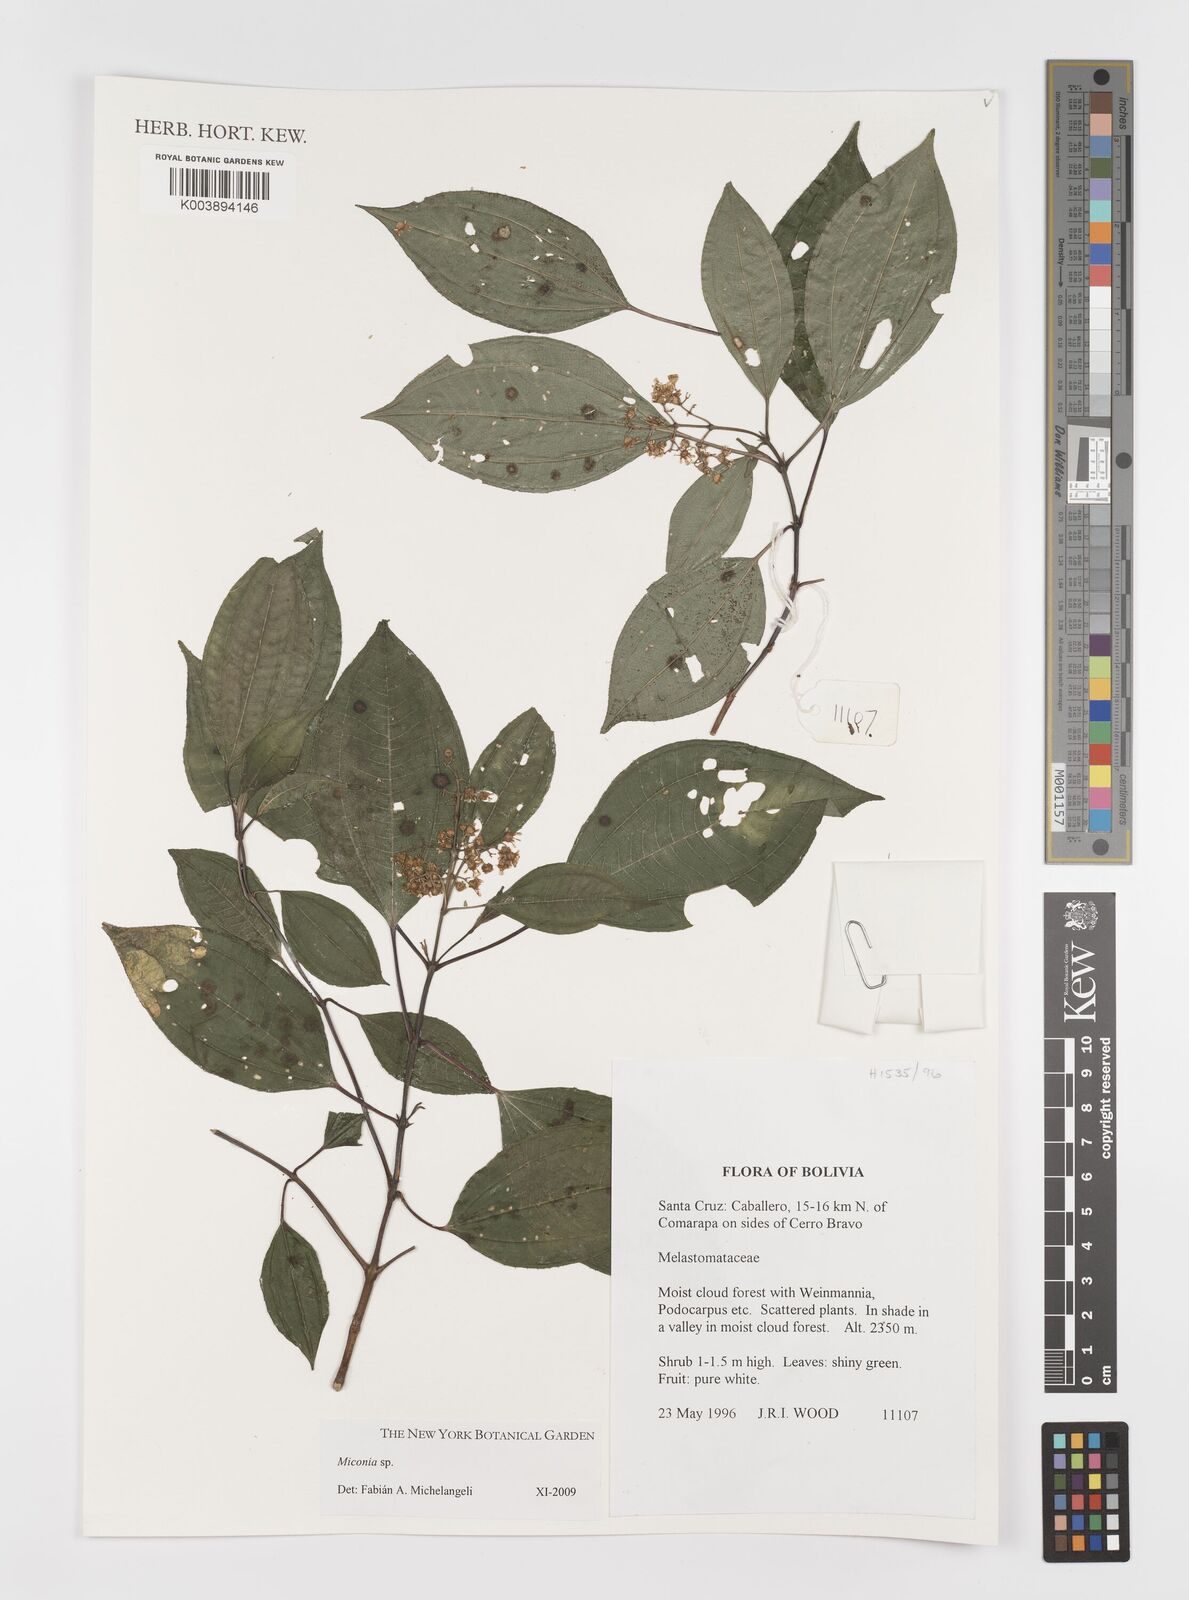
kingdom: Plantae
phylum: Tracheophyta
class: Magnoliopsida
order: Myrtales
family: Melastomataceae
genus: Miconia
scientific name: Miconia
